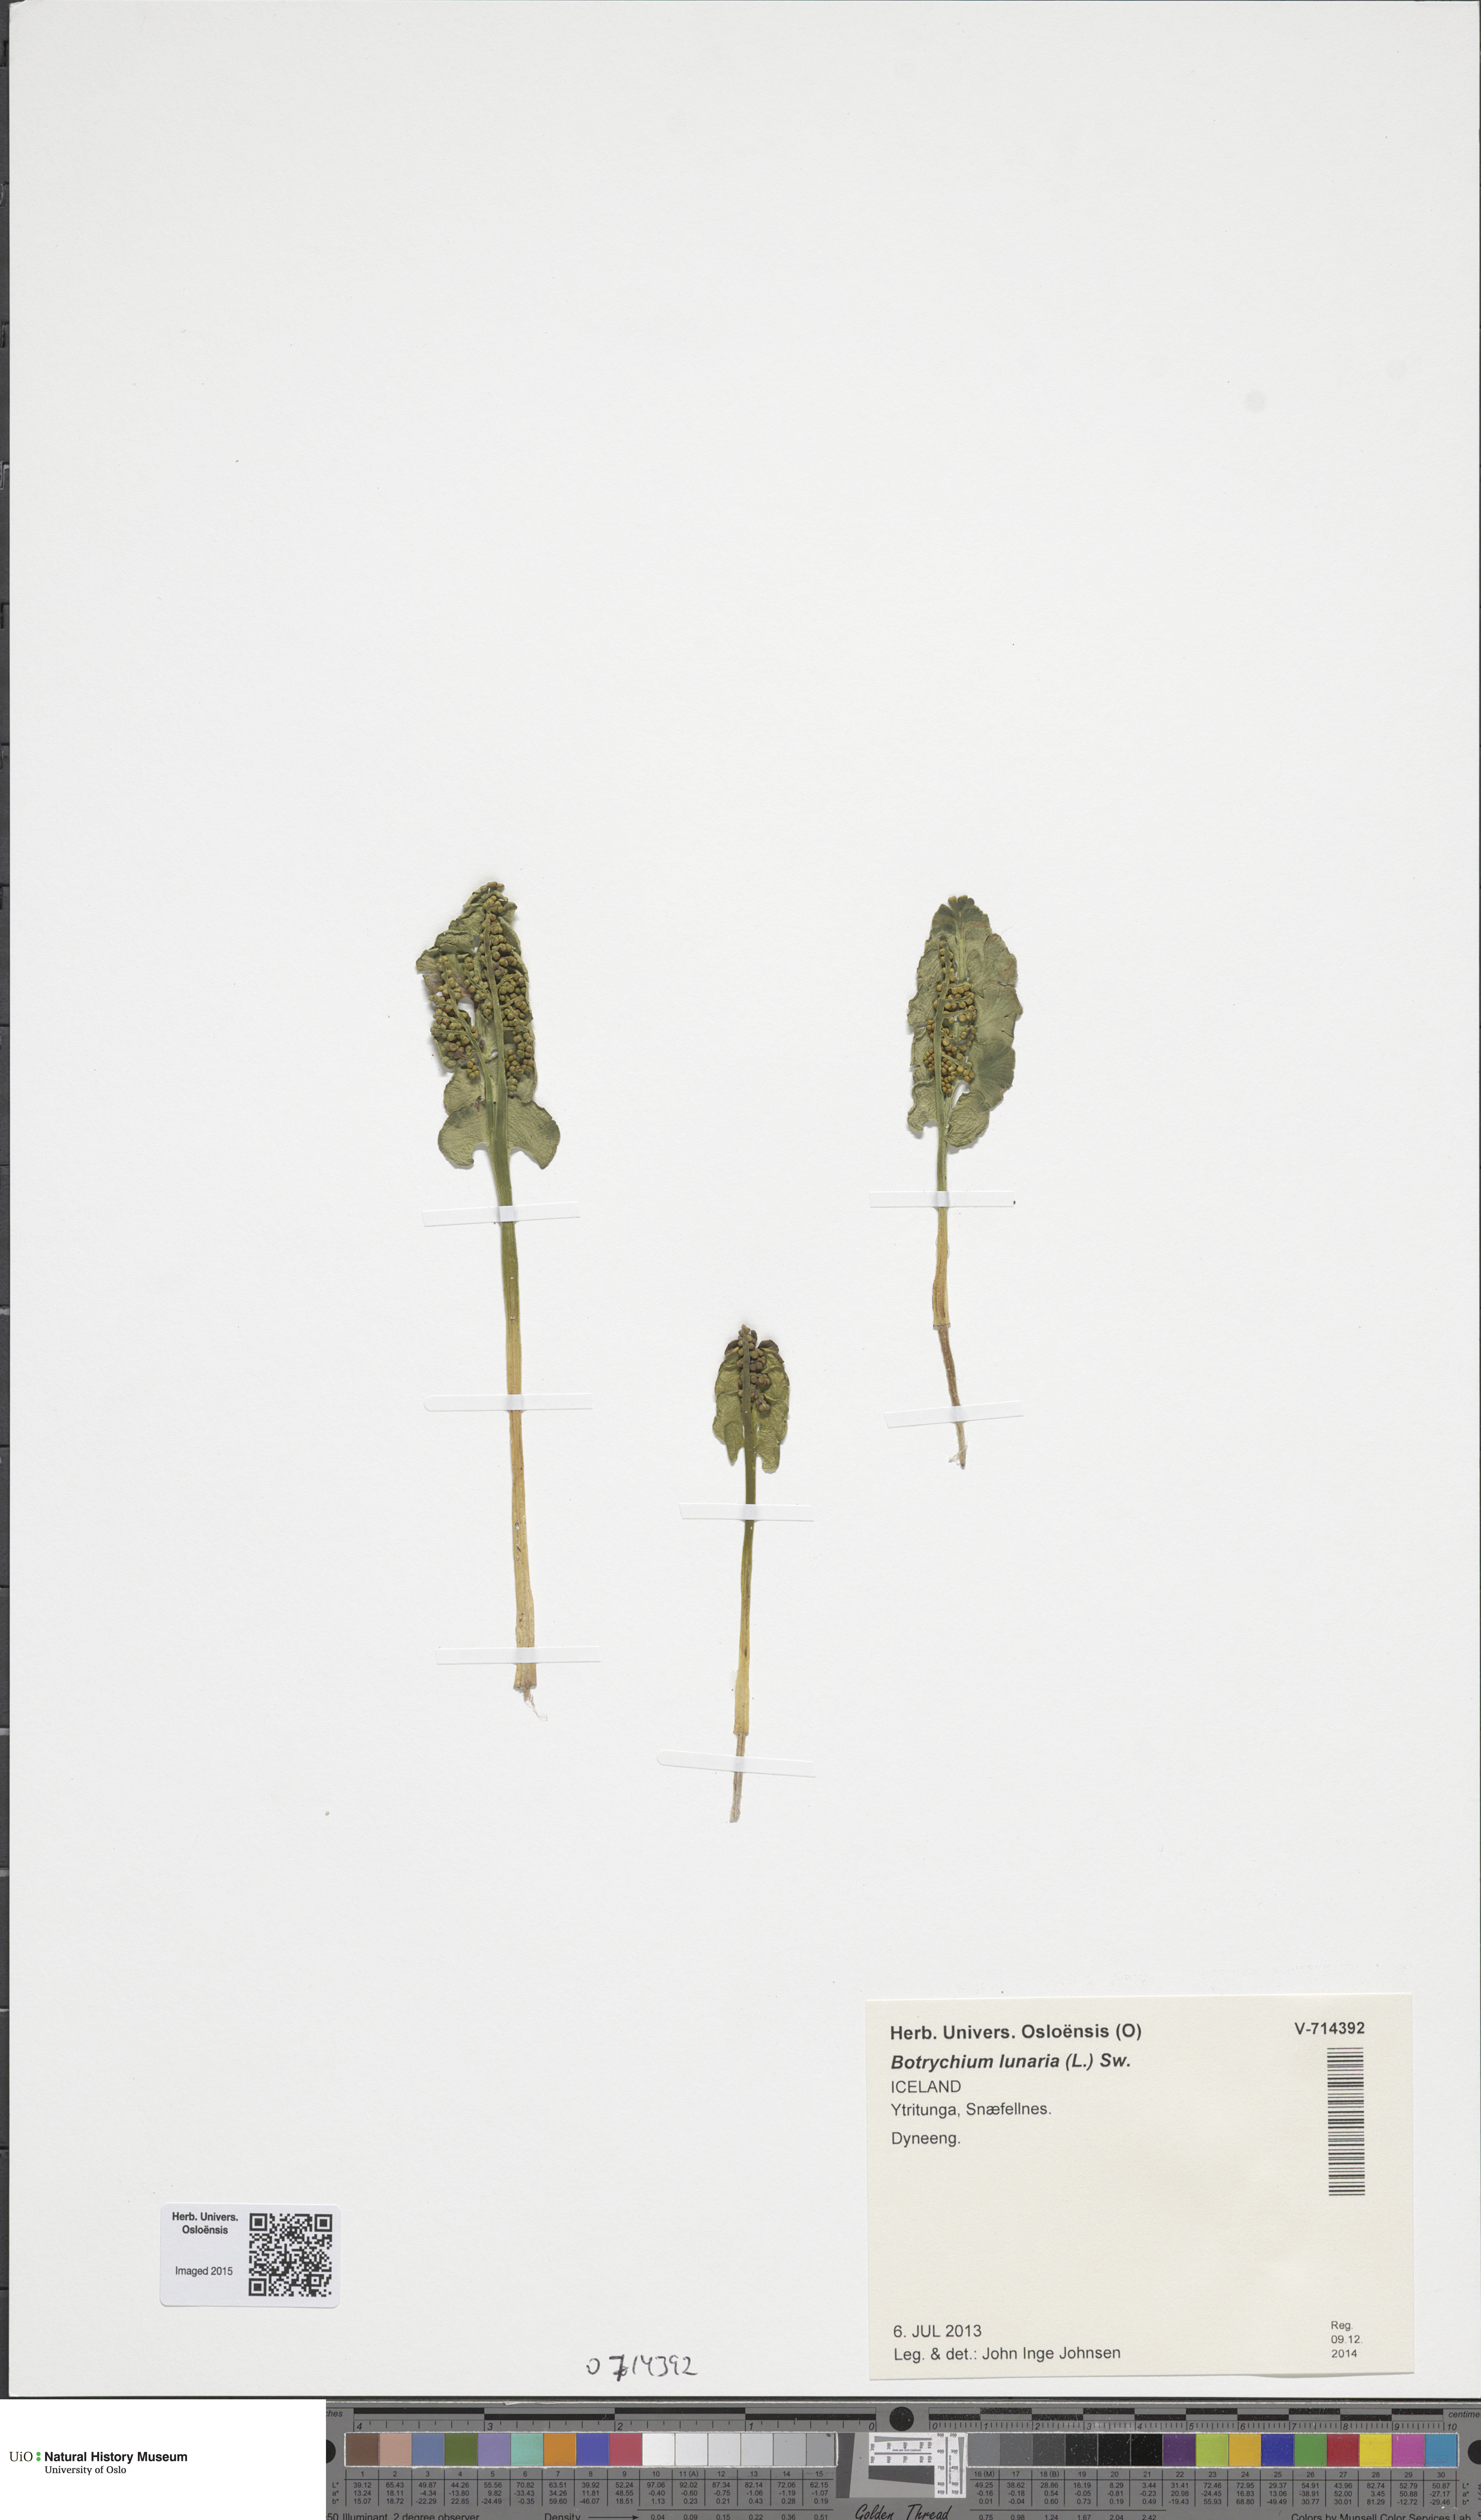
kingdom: Plantae
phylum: Tracheophyta
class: Polypodiopsida
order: Ophioglossales
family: Ophioglossaceae
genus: Botrychium
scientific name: Botrychium lunaria
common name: Moonwort
